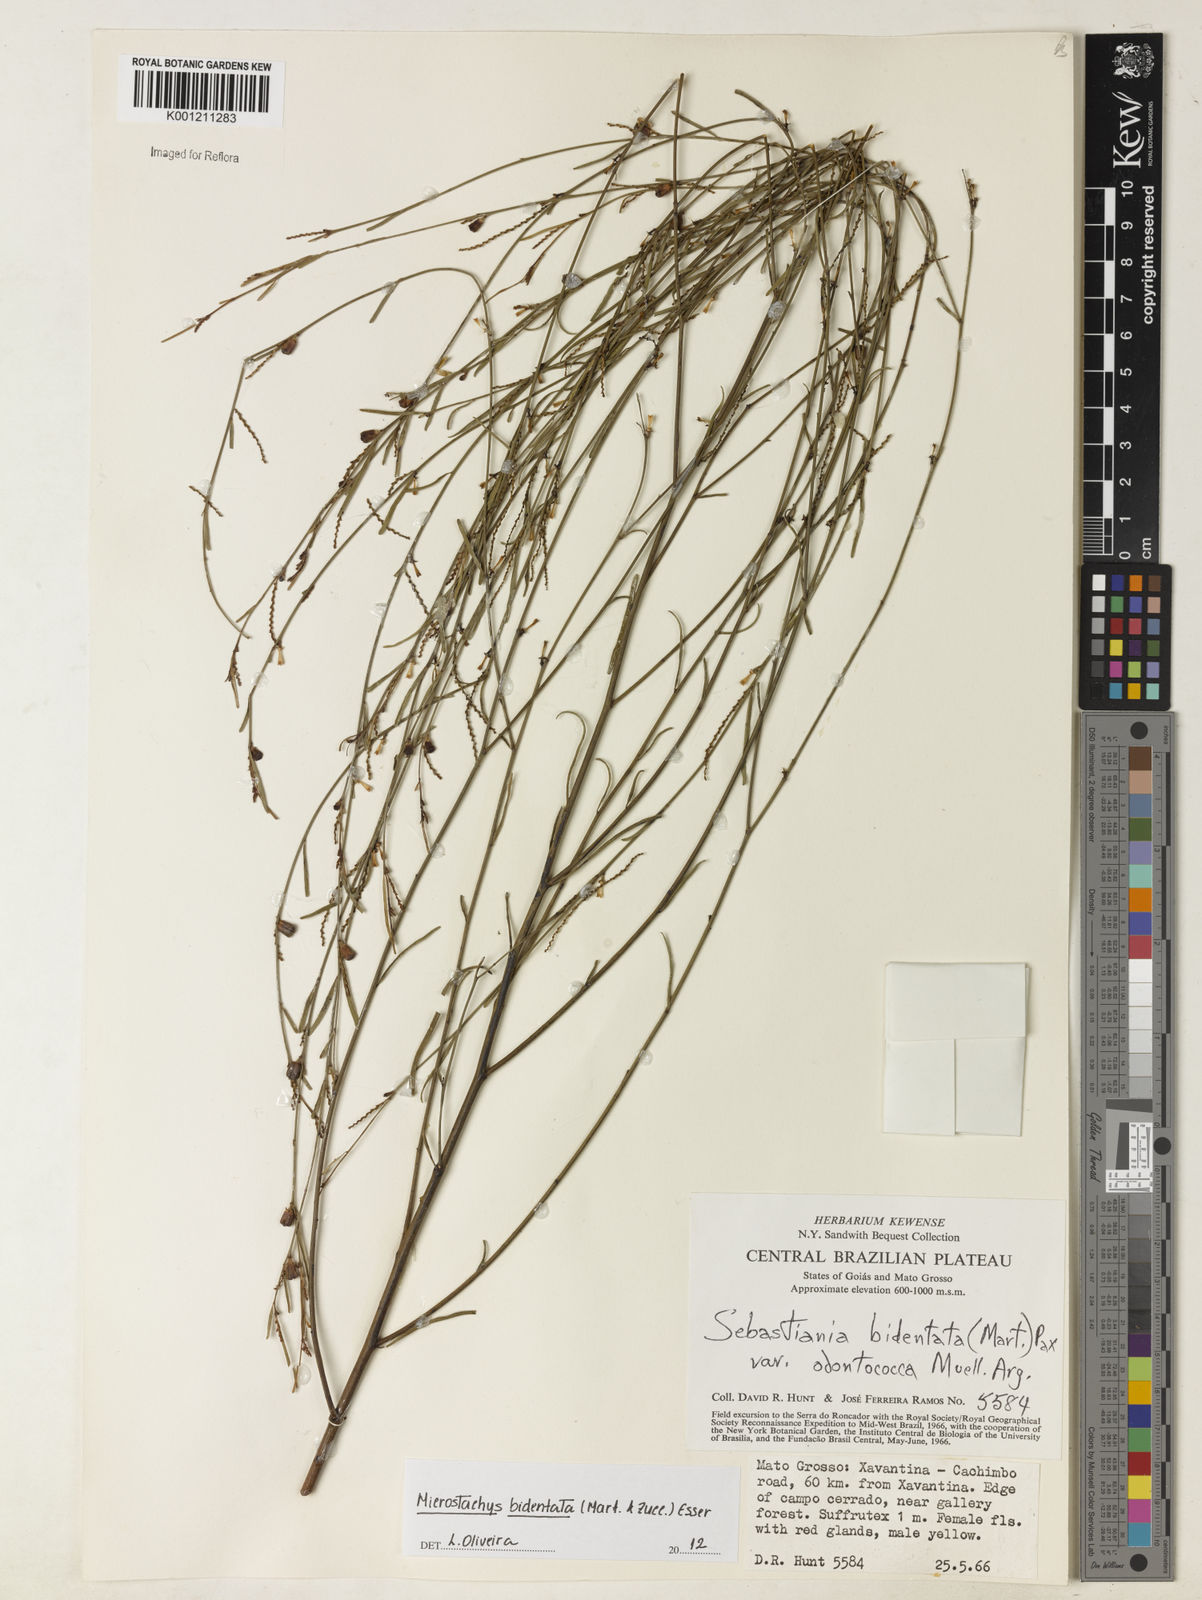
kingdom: Plantae
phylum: Tracheophyta
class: Magnoliopsida
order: Malpighiales
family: Euphorbiaceae
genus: Microstachys
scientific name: Microstachys bidentata
